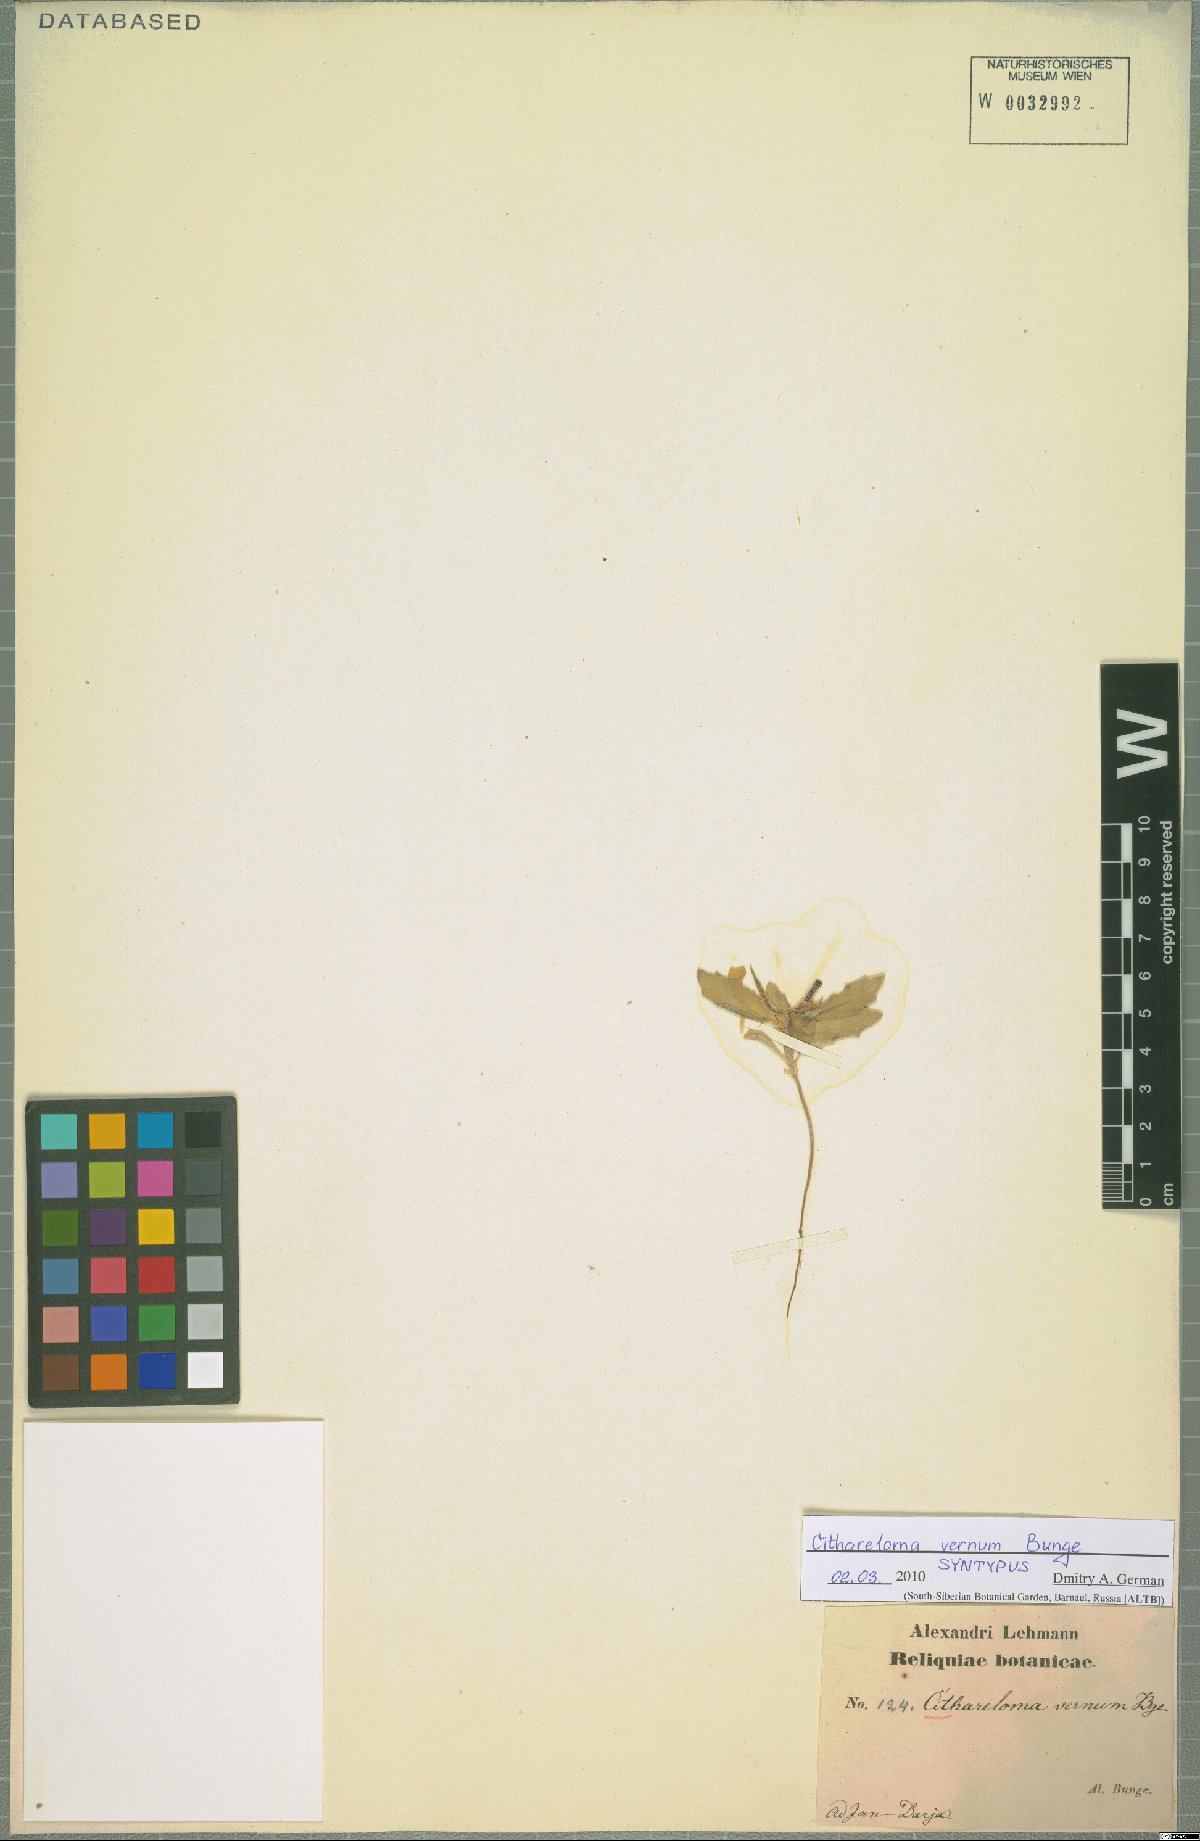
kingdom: Plantae
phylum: Tracheophyta
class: Magnoliopsida
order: Brassicales
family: Brassicaceae
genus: Cithareloma
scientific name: Cithareloma vernum
